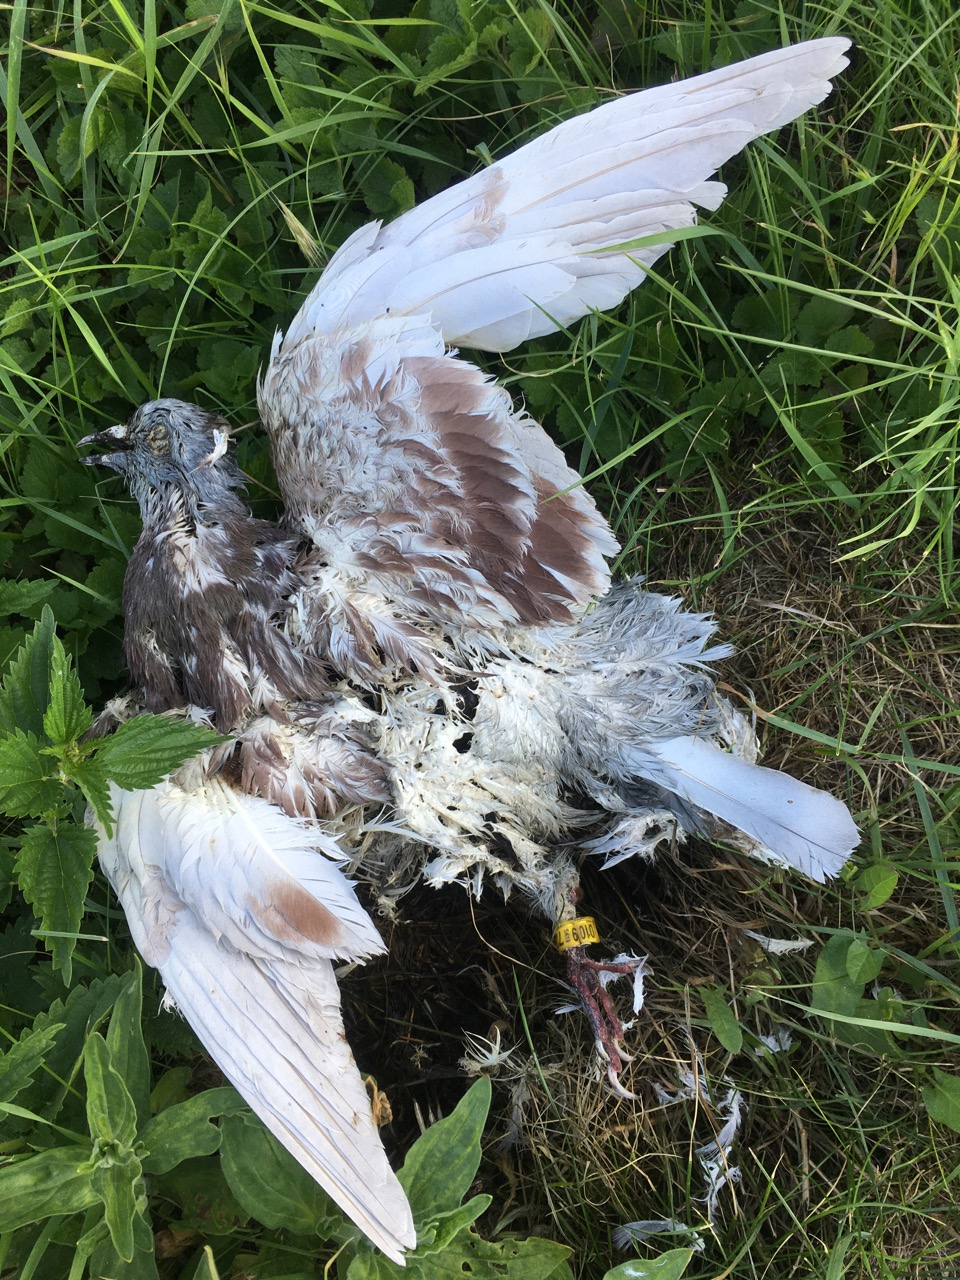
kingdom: Animalia
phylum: Chordata
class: Aves
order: Columbiformes
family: Columbidae
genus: Columba
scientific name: Columba livia
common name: Rock pigeon
